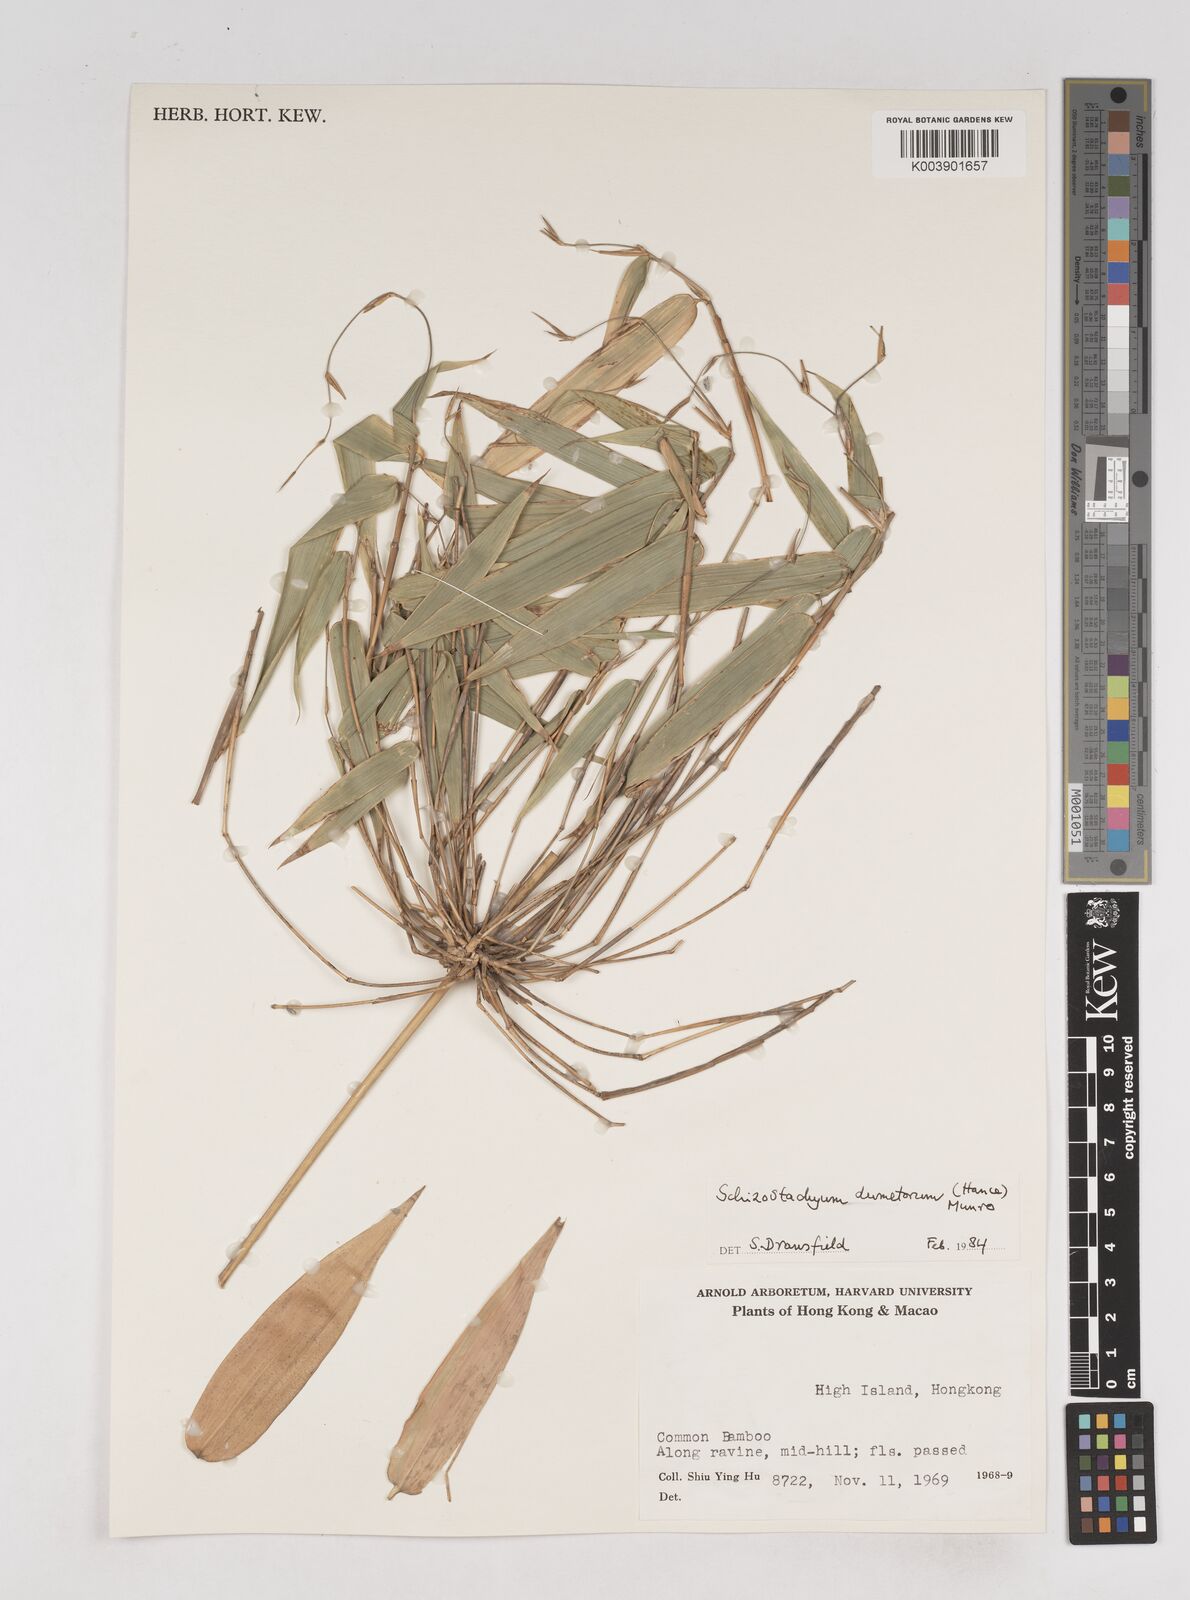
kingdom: Plantae
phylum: Tracheophyta
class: Liliopsida
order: Poales
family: Poaceae
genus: Schizostachyum
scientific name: Schizostachyum dumetorum
